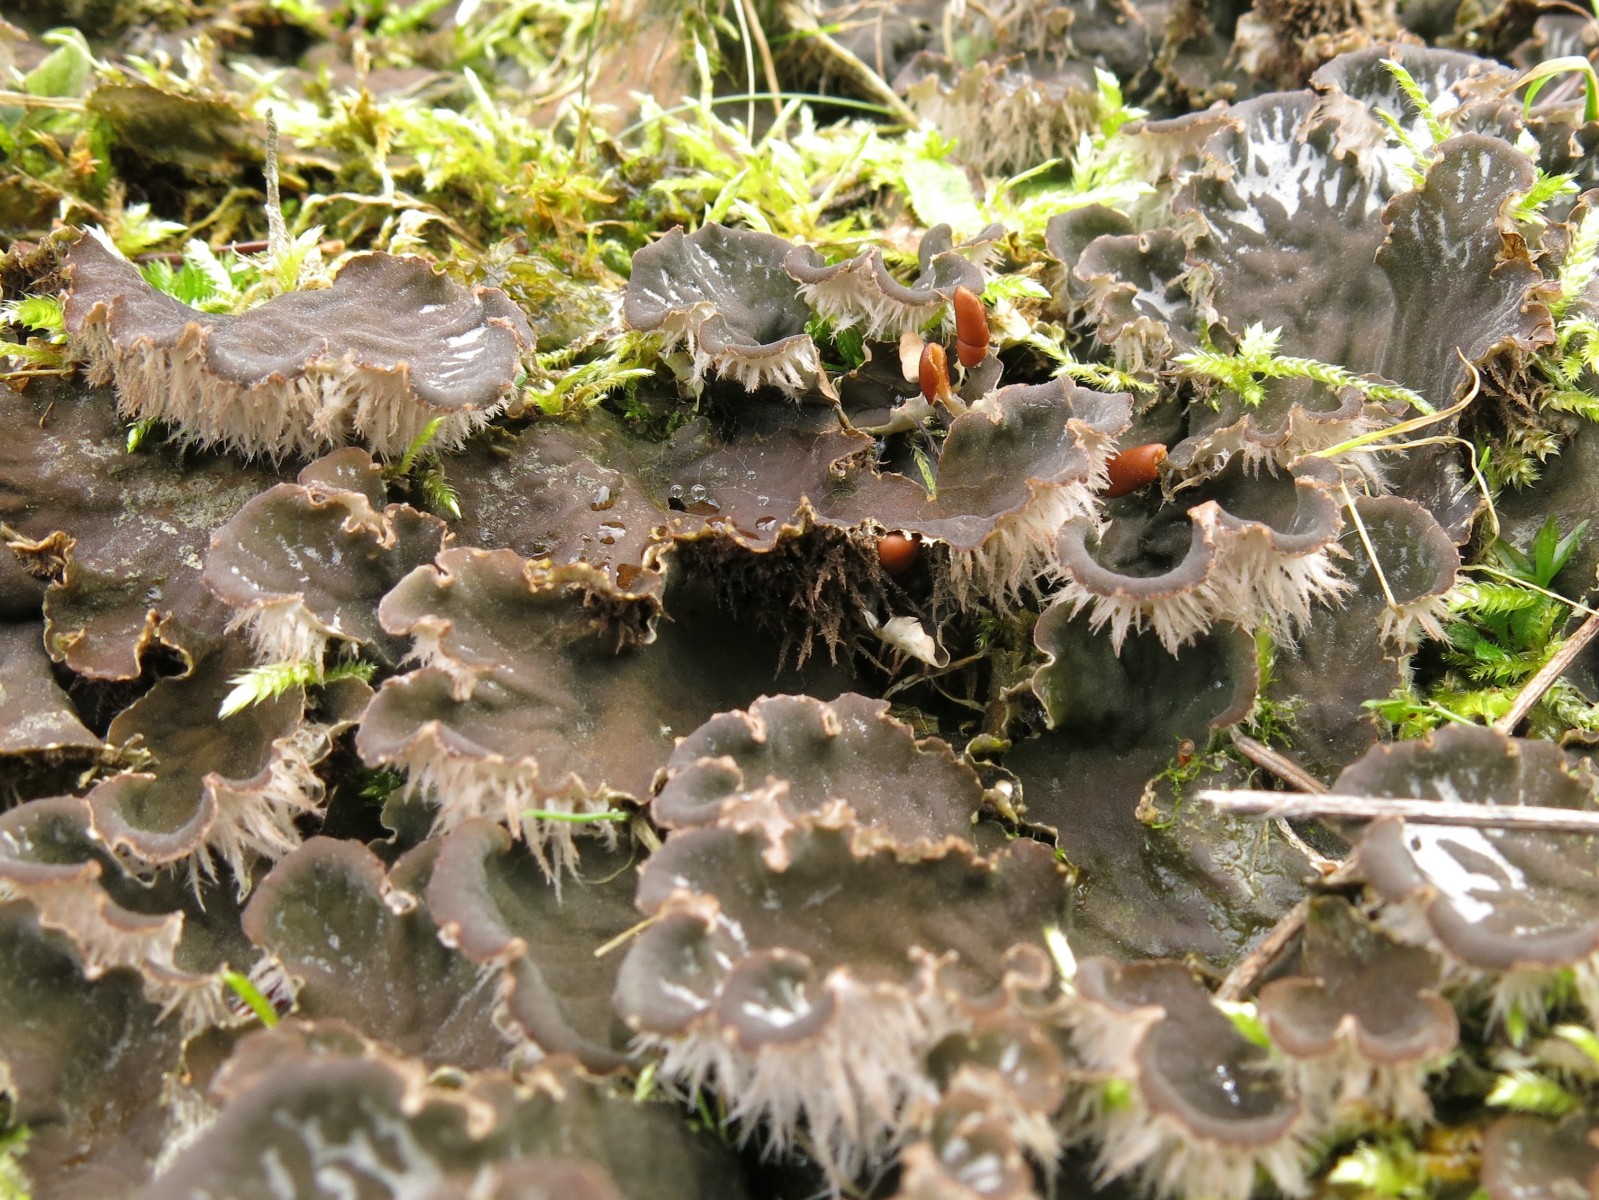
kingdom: Fungi
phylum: Ascomycota
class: Lecanoromycetes
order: Peltigerales
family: Peltigeraceae
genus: Peltigera
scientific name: Peltigera canina
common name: hunde-skjoldlav
